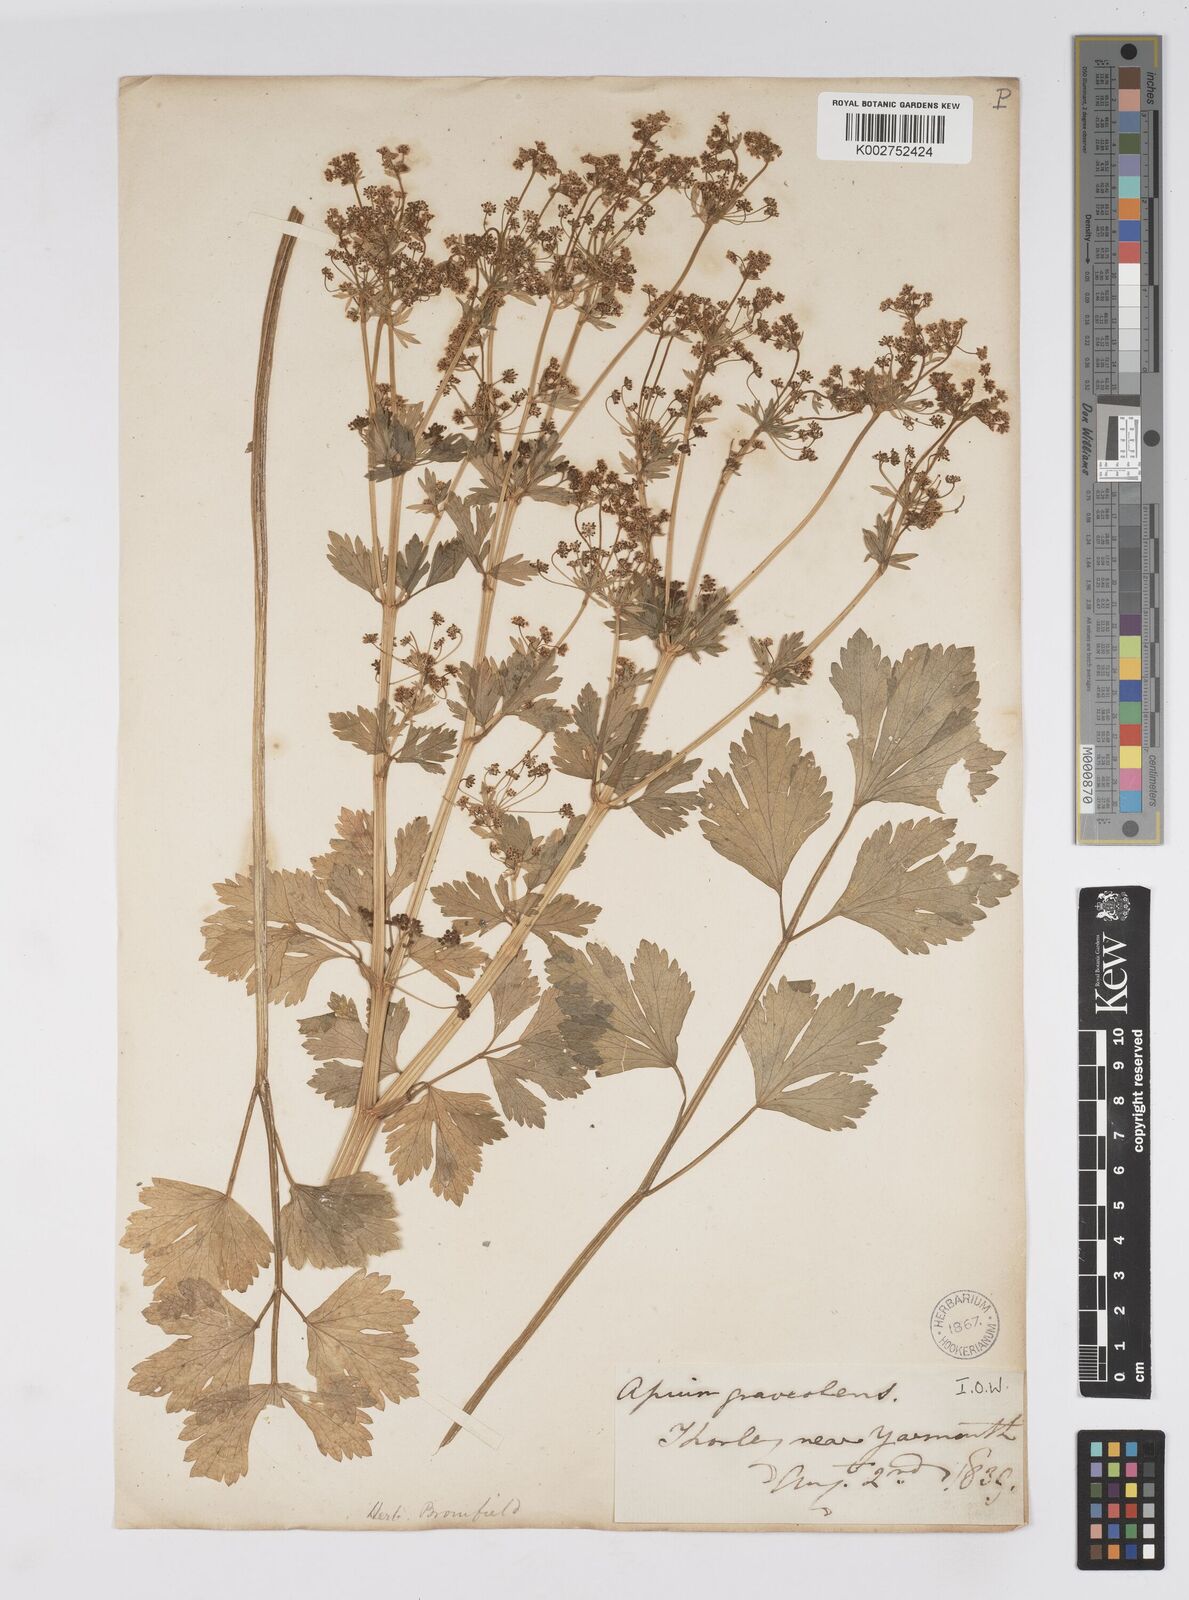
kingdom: Plantae
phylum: Tracheophyta
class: Magnoliopsida
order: Apiales
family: Apiaceae
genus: Apium
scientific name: Apium graveolens
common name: Wild celery
